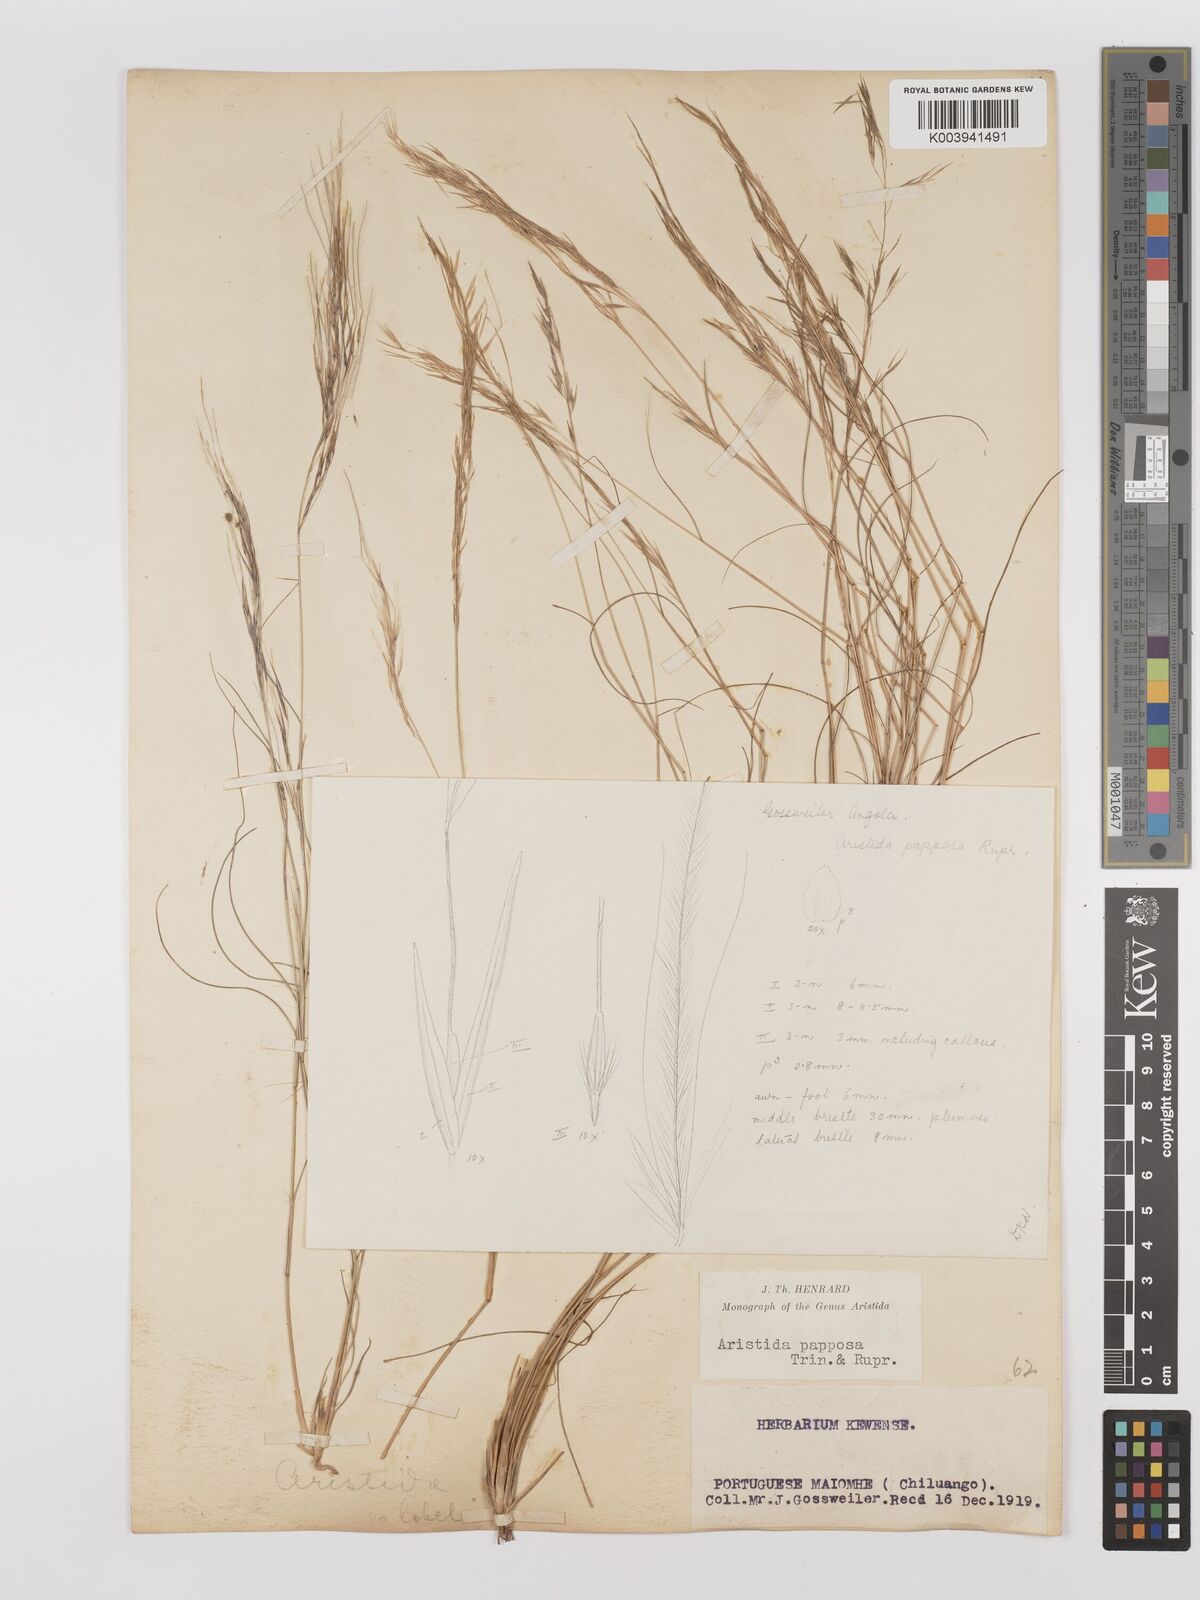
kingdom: Plantae
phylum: Tracheophyta
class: Liliopsida
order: Poales
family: Poaceae
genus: Stipagrostis
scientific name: Stipagrostis uniplumis
